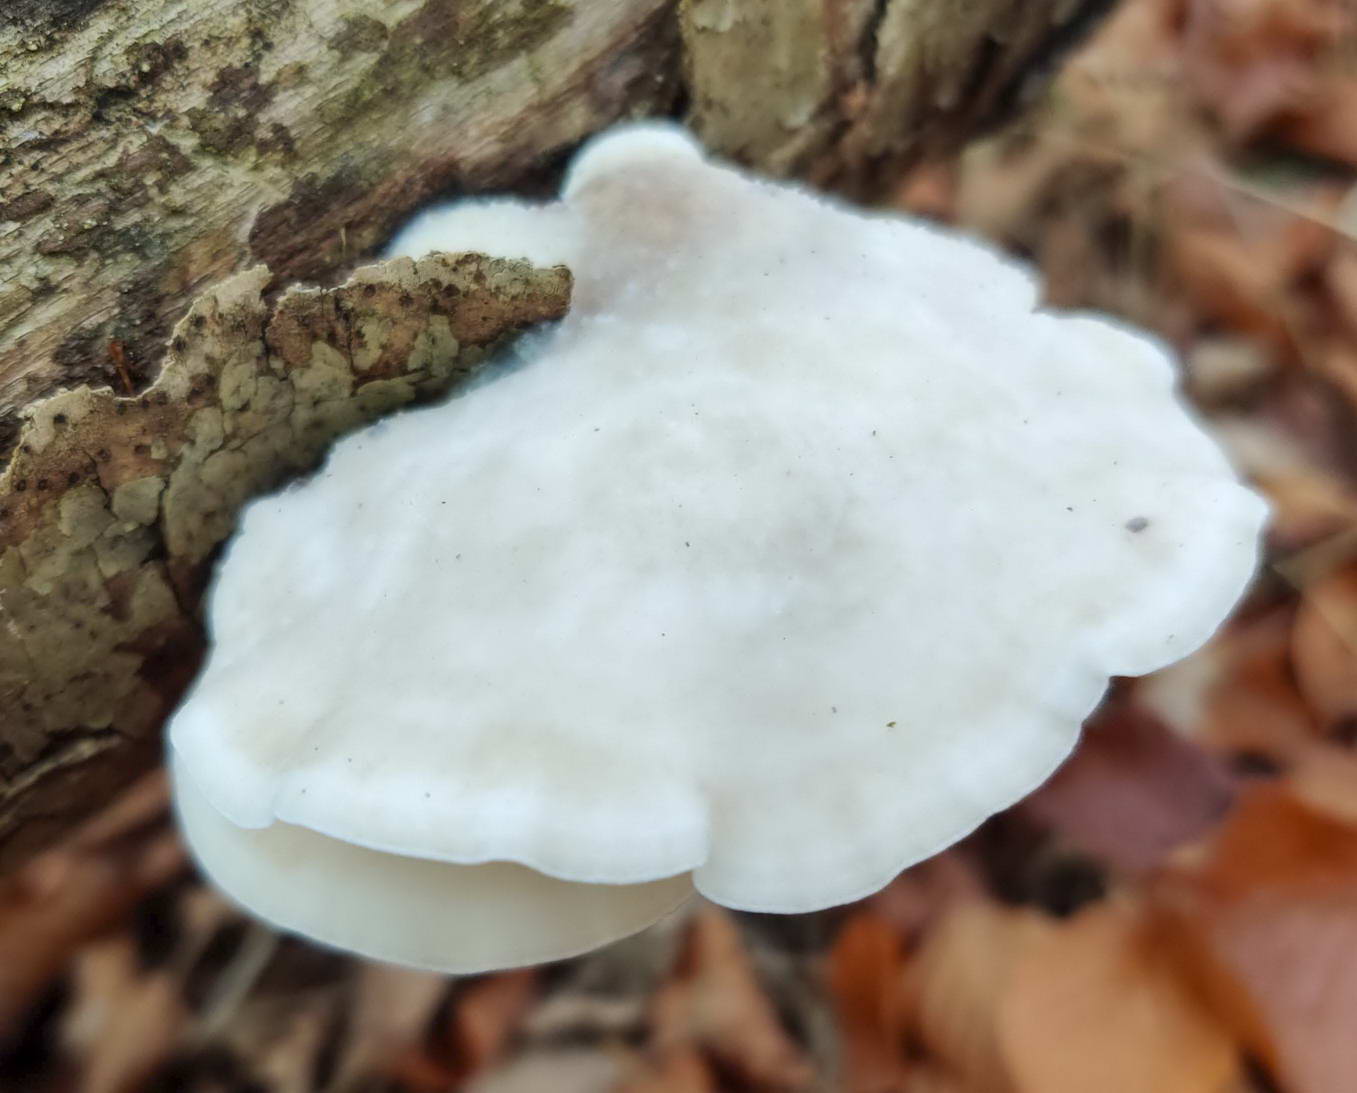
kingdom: Fungi
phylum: Basidiomycota
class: Agaricomycetes
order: Polyporales
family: Incrustoporiaceae
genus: Tyromyces
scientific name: Tyromyces chioneus
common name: stor blødporesvamp
